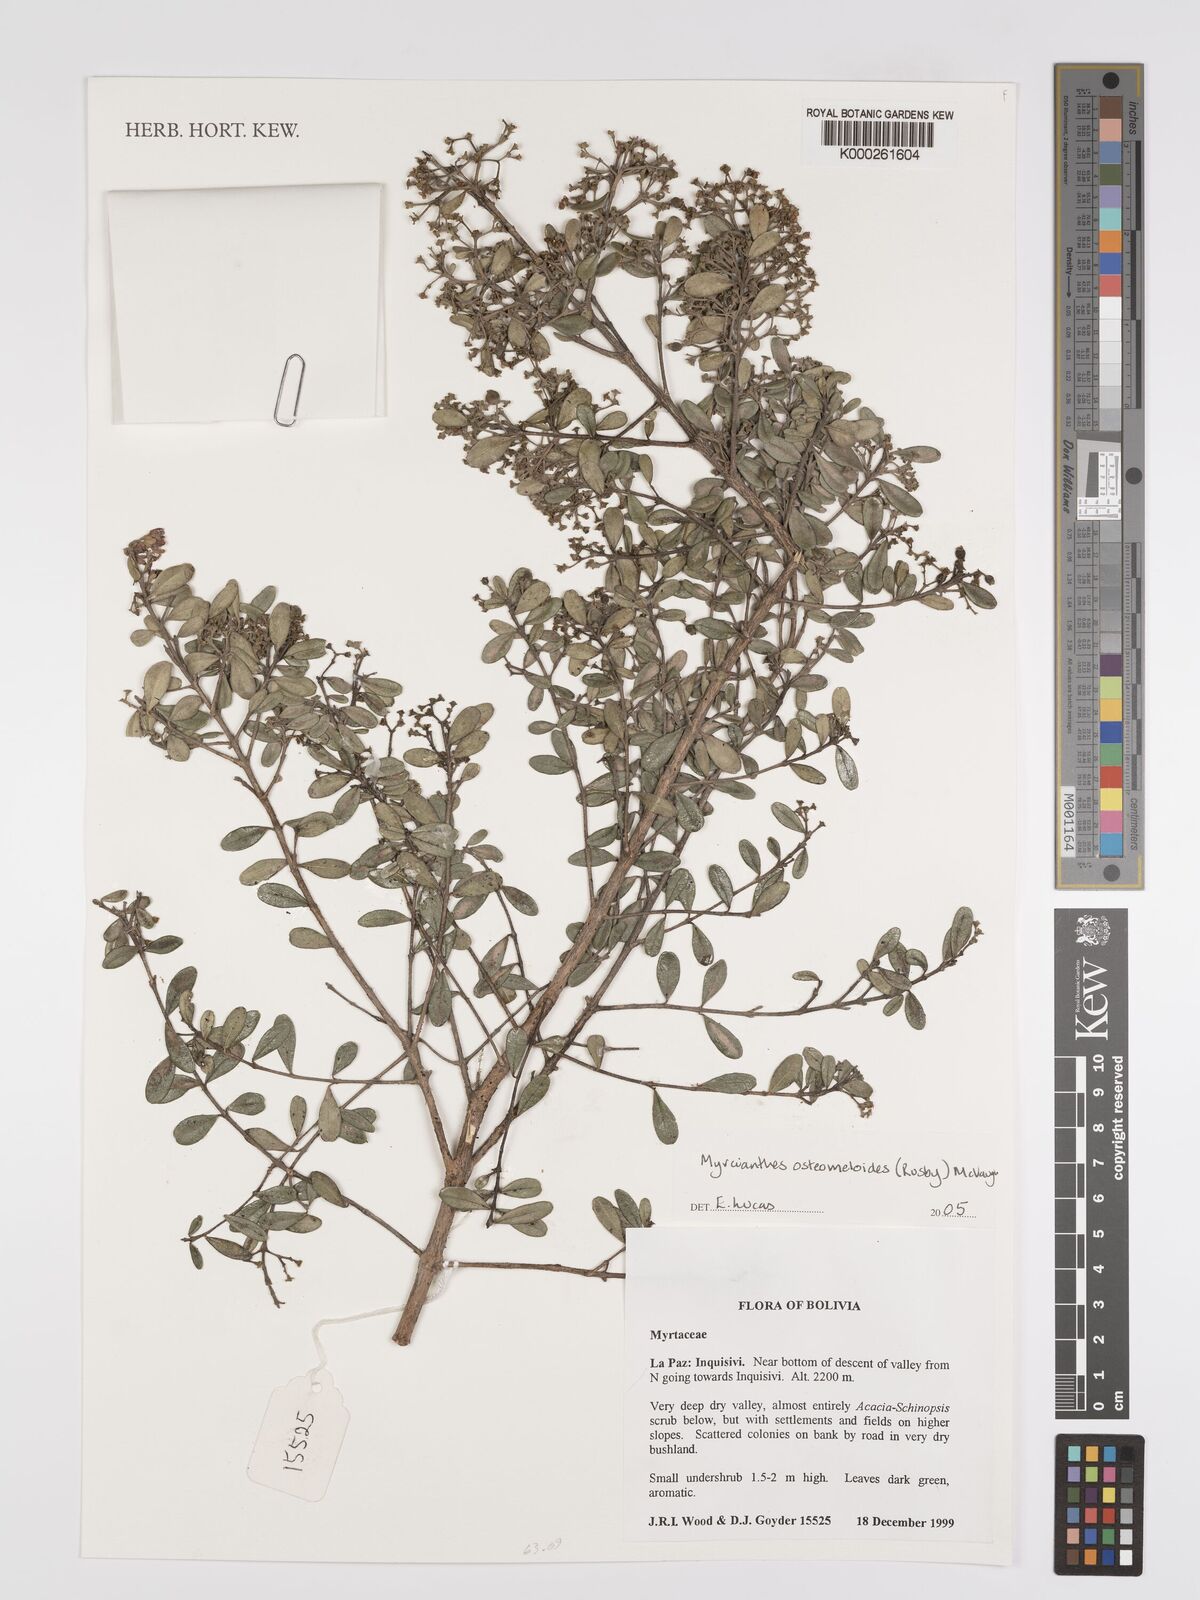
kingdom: Plantae
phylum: Tracheophyta
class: Magnoliopsida
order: Myrtales
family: Myrtaceae
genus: Myrcianthes
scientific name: Myrcianthes osteomeloides
